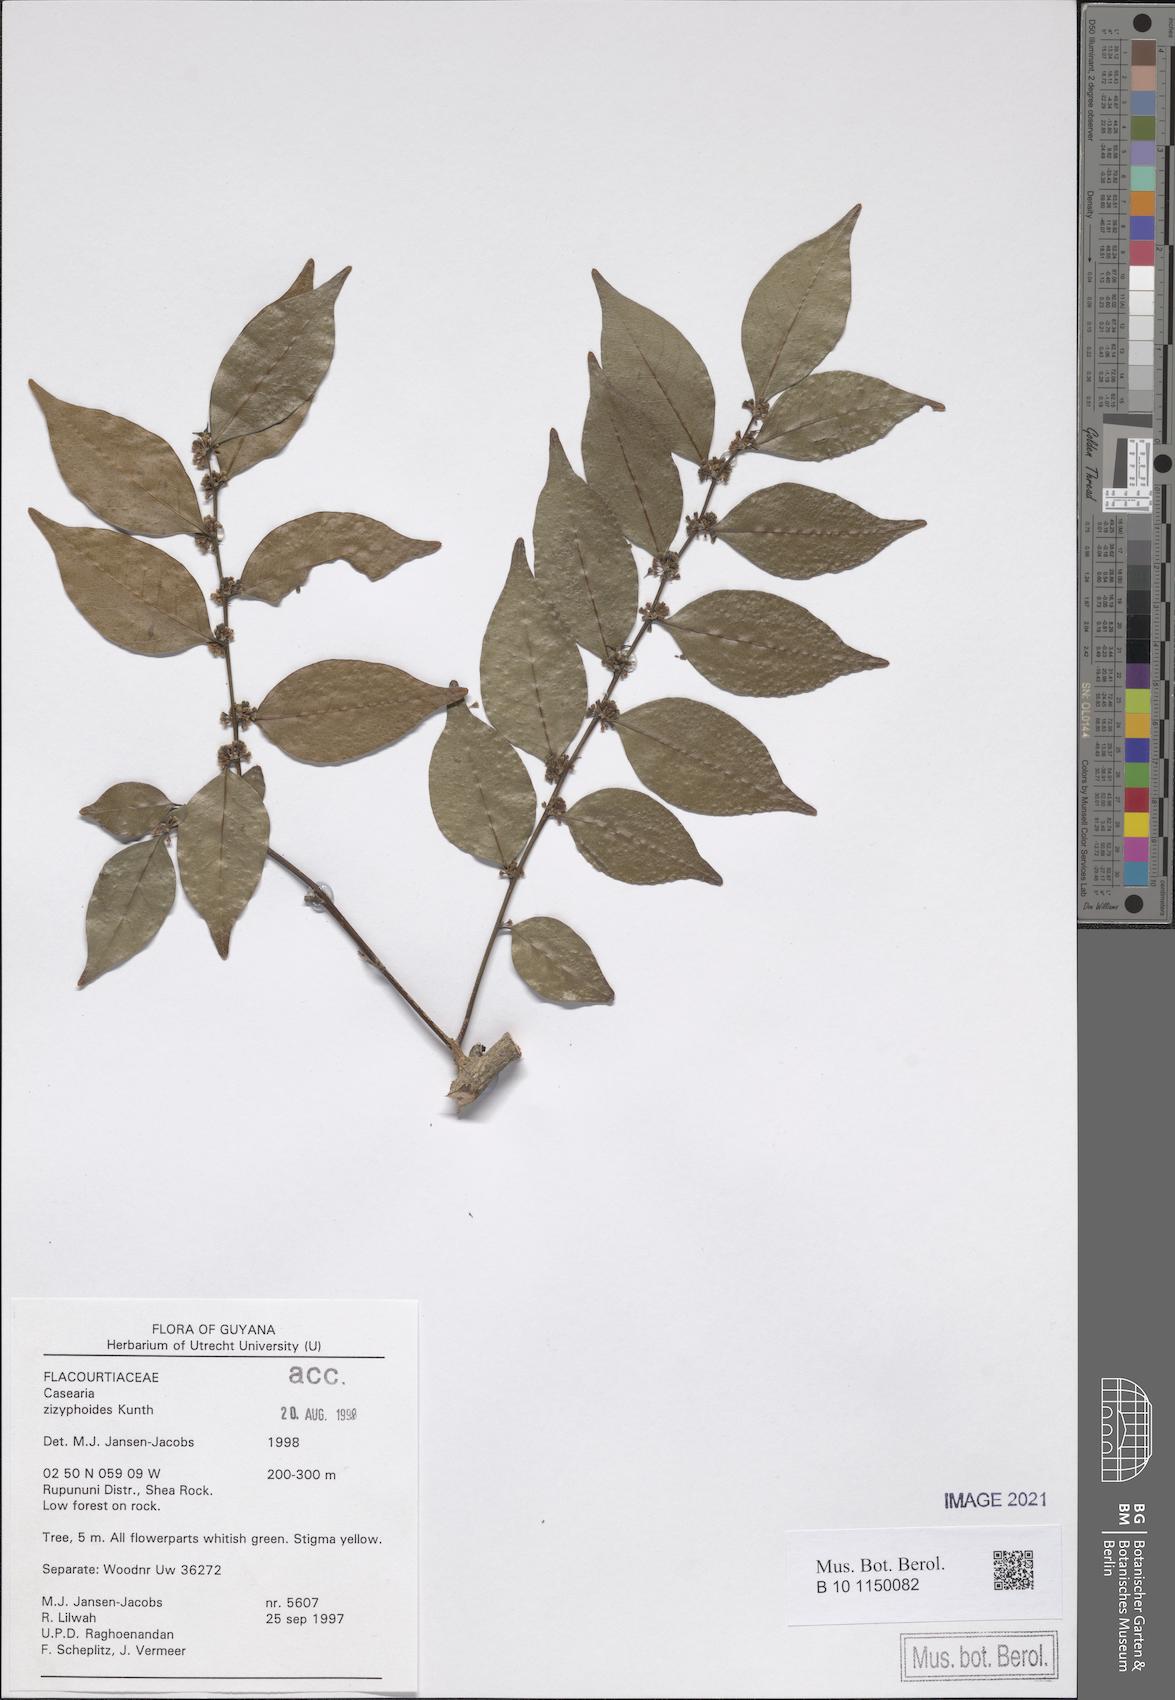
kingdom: Plantae
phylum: Tracheophyta
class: Magnoliopsida
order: Malpighiales
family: Salicaceae
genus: Casearia
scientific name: Casearia zizyphoides
